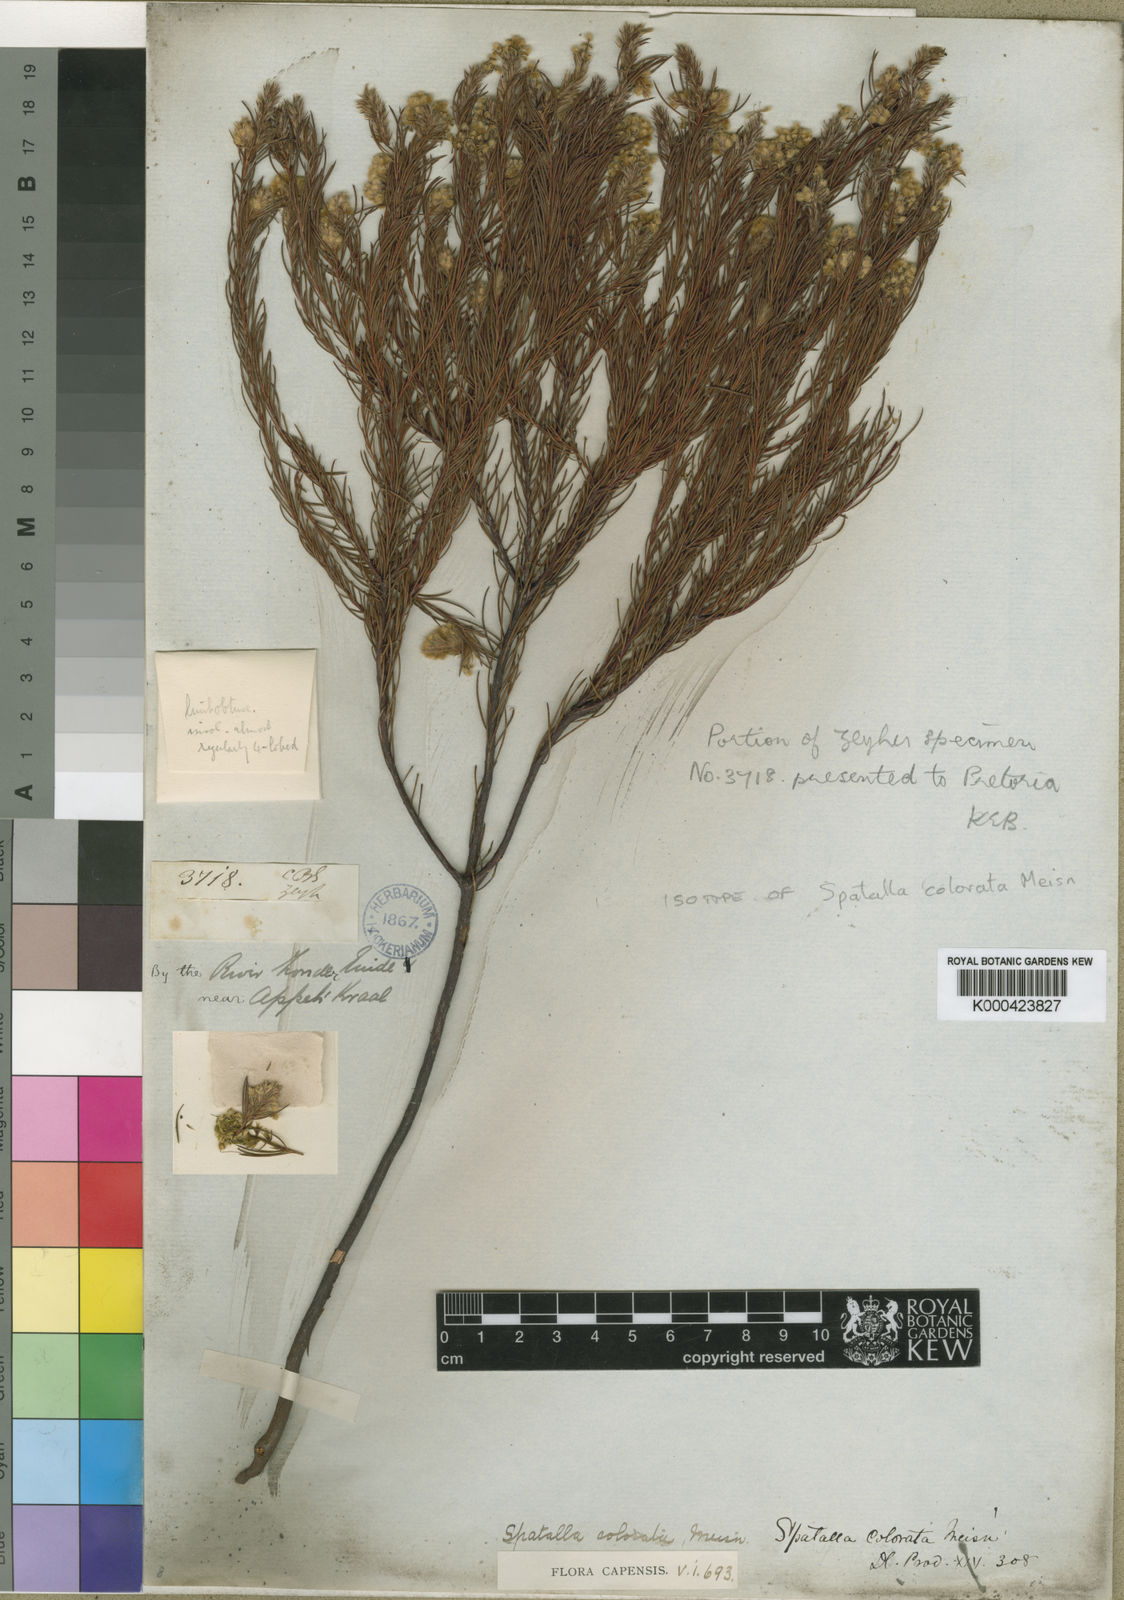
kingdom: Plantae
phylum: Tracheophyta
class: Magnoliopsida
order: Proteales
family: Proteaceae
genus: Spatalla
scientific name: Spatalla colorata
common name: Shiny spoon
